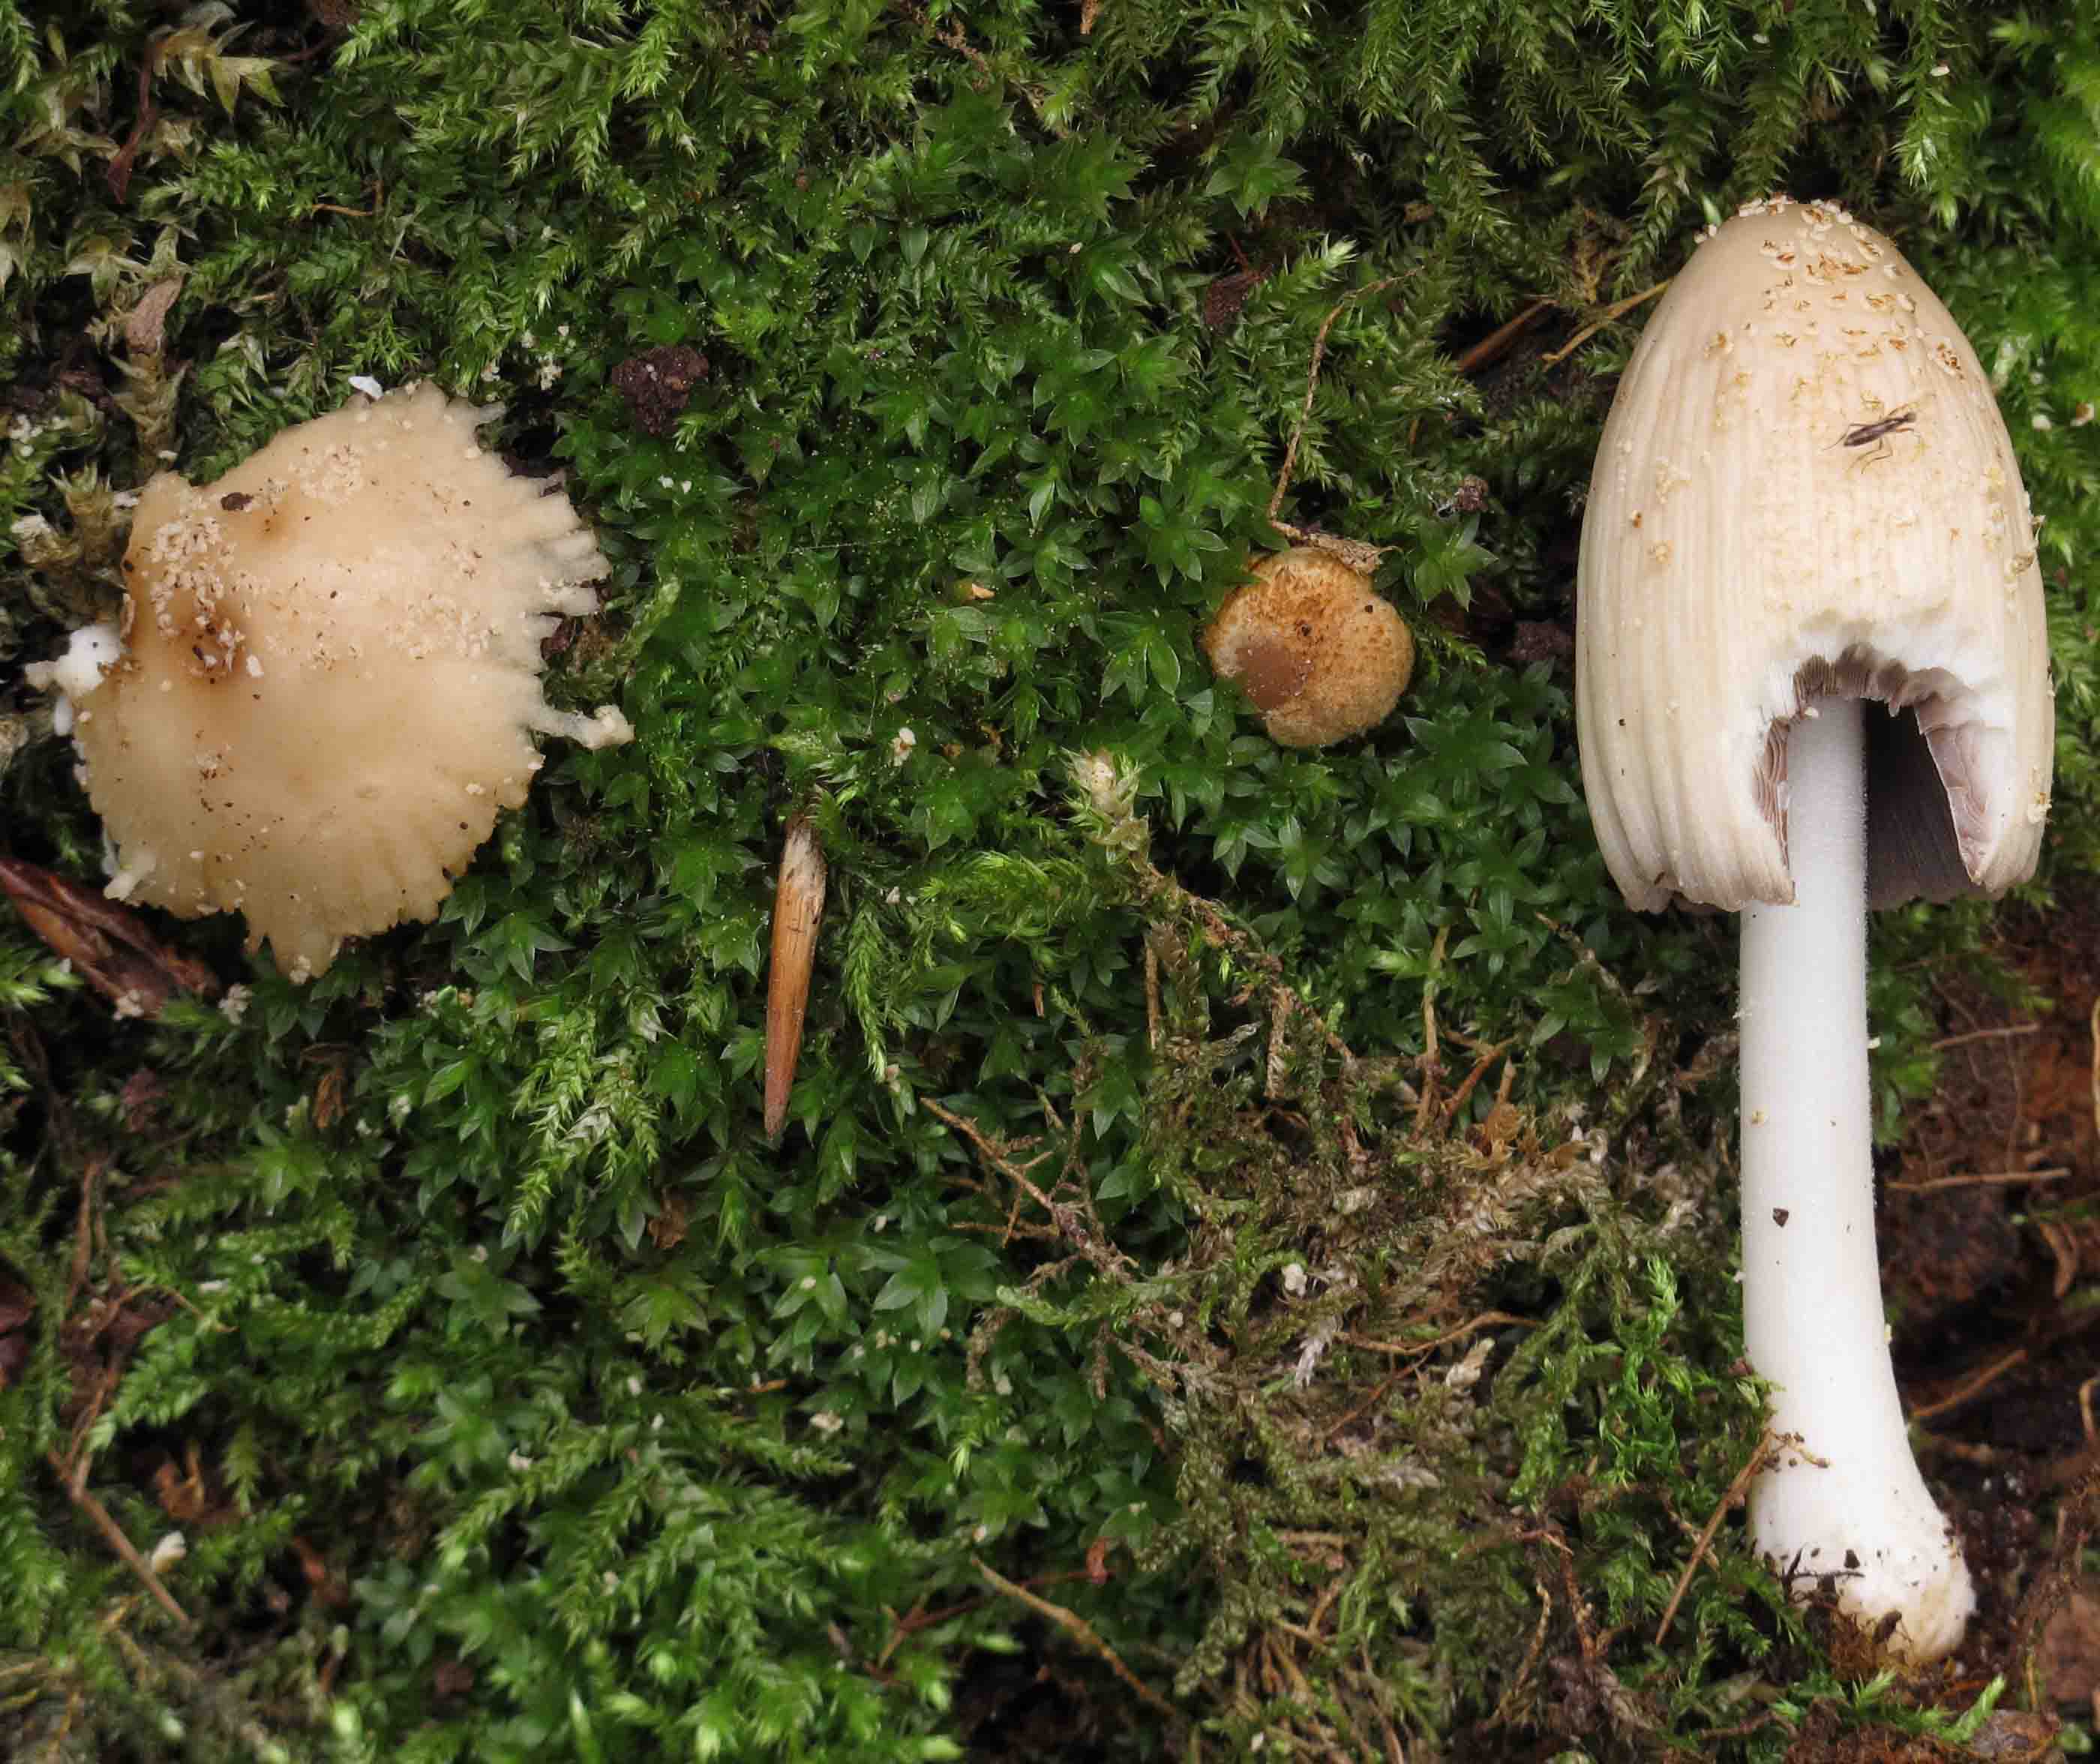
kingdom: Fungi
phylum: Basidiomycota
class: Agaricomycetes
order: Agaricales
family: Psathyrellaceae
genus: Coprinellus
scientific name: Coprinellus domesticus
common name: hus-blækhat
